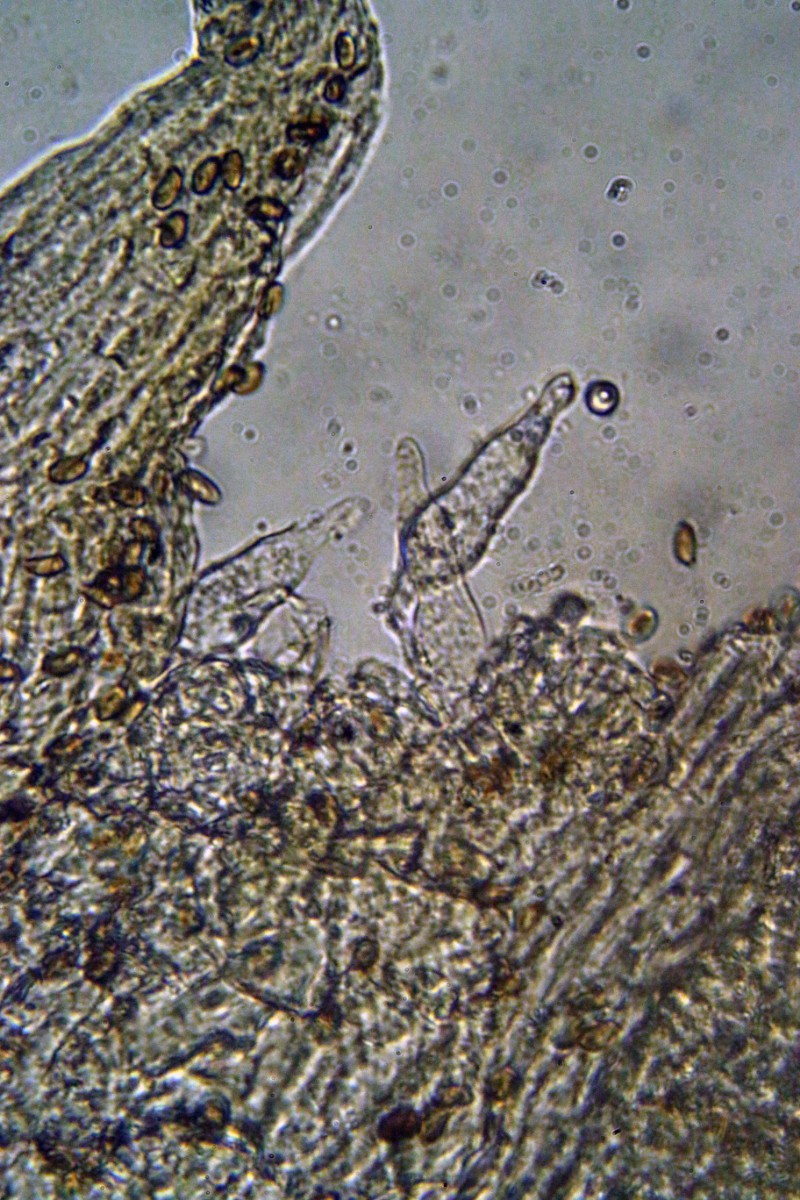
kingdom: Fungi
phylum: Basidiomycota
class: Agaricomycetes
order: Agaricales
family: Strophariaceae
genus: Pholiota
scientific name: Pholiota carbonaria
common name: kul-skælhat
